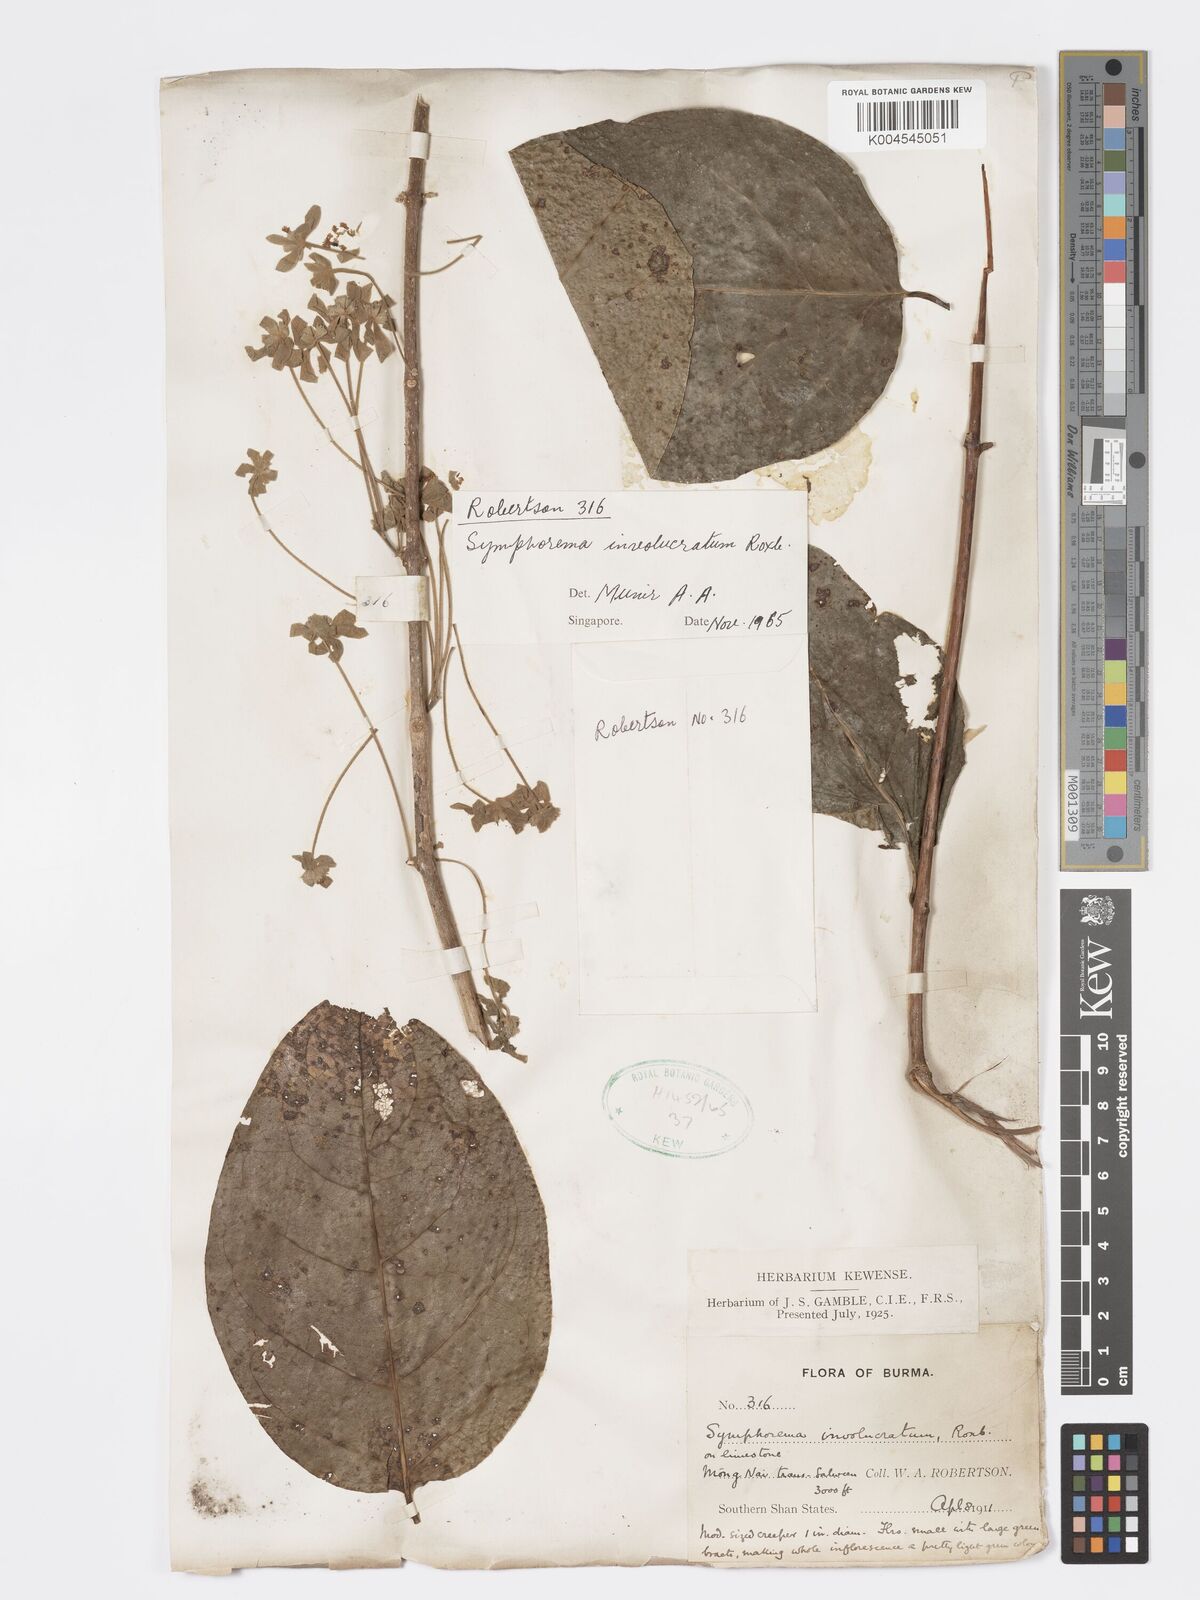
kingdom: Plantae
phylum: Tracheophyta
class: Magnoliopsida
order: Lamiales
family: Lamiaceae
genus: Symphorema
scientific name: Symphorema involucratum
